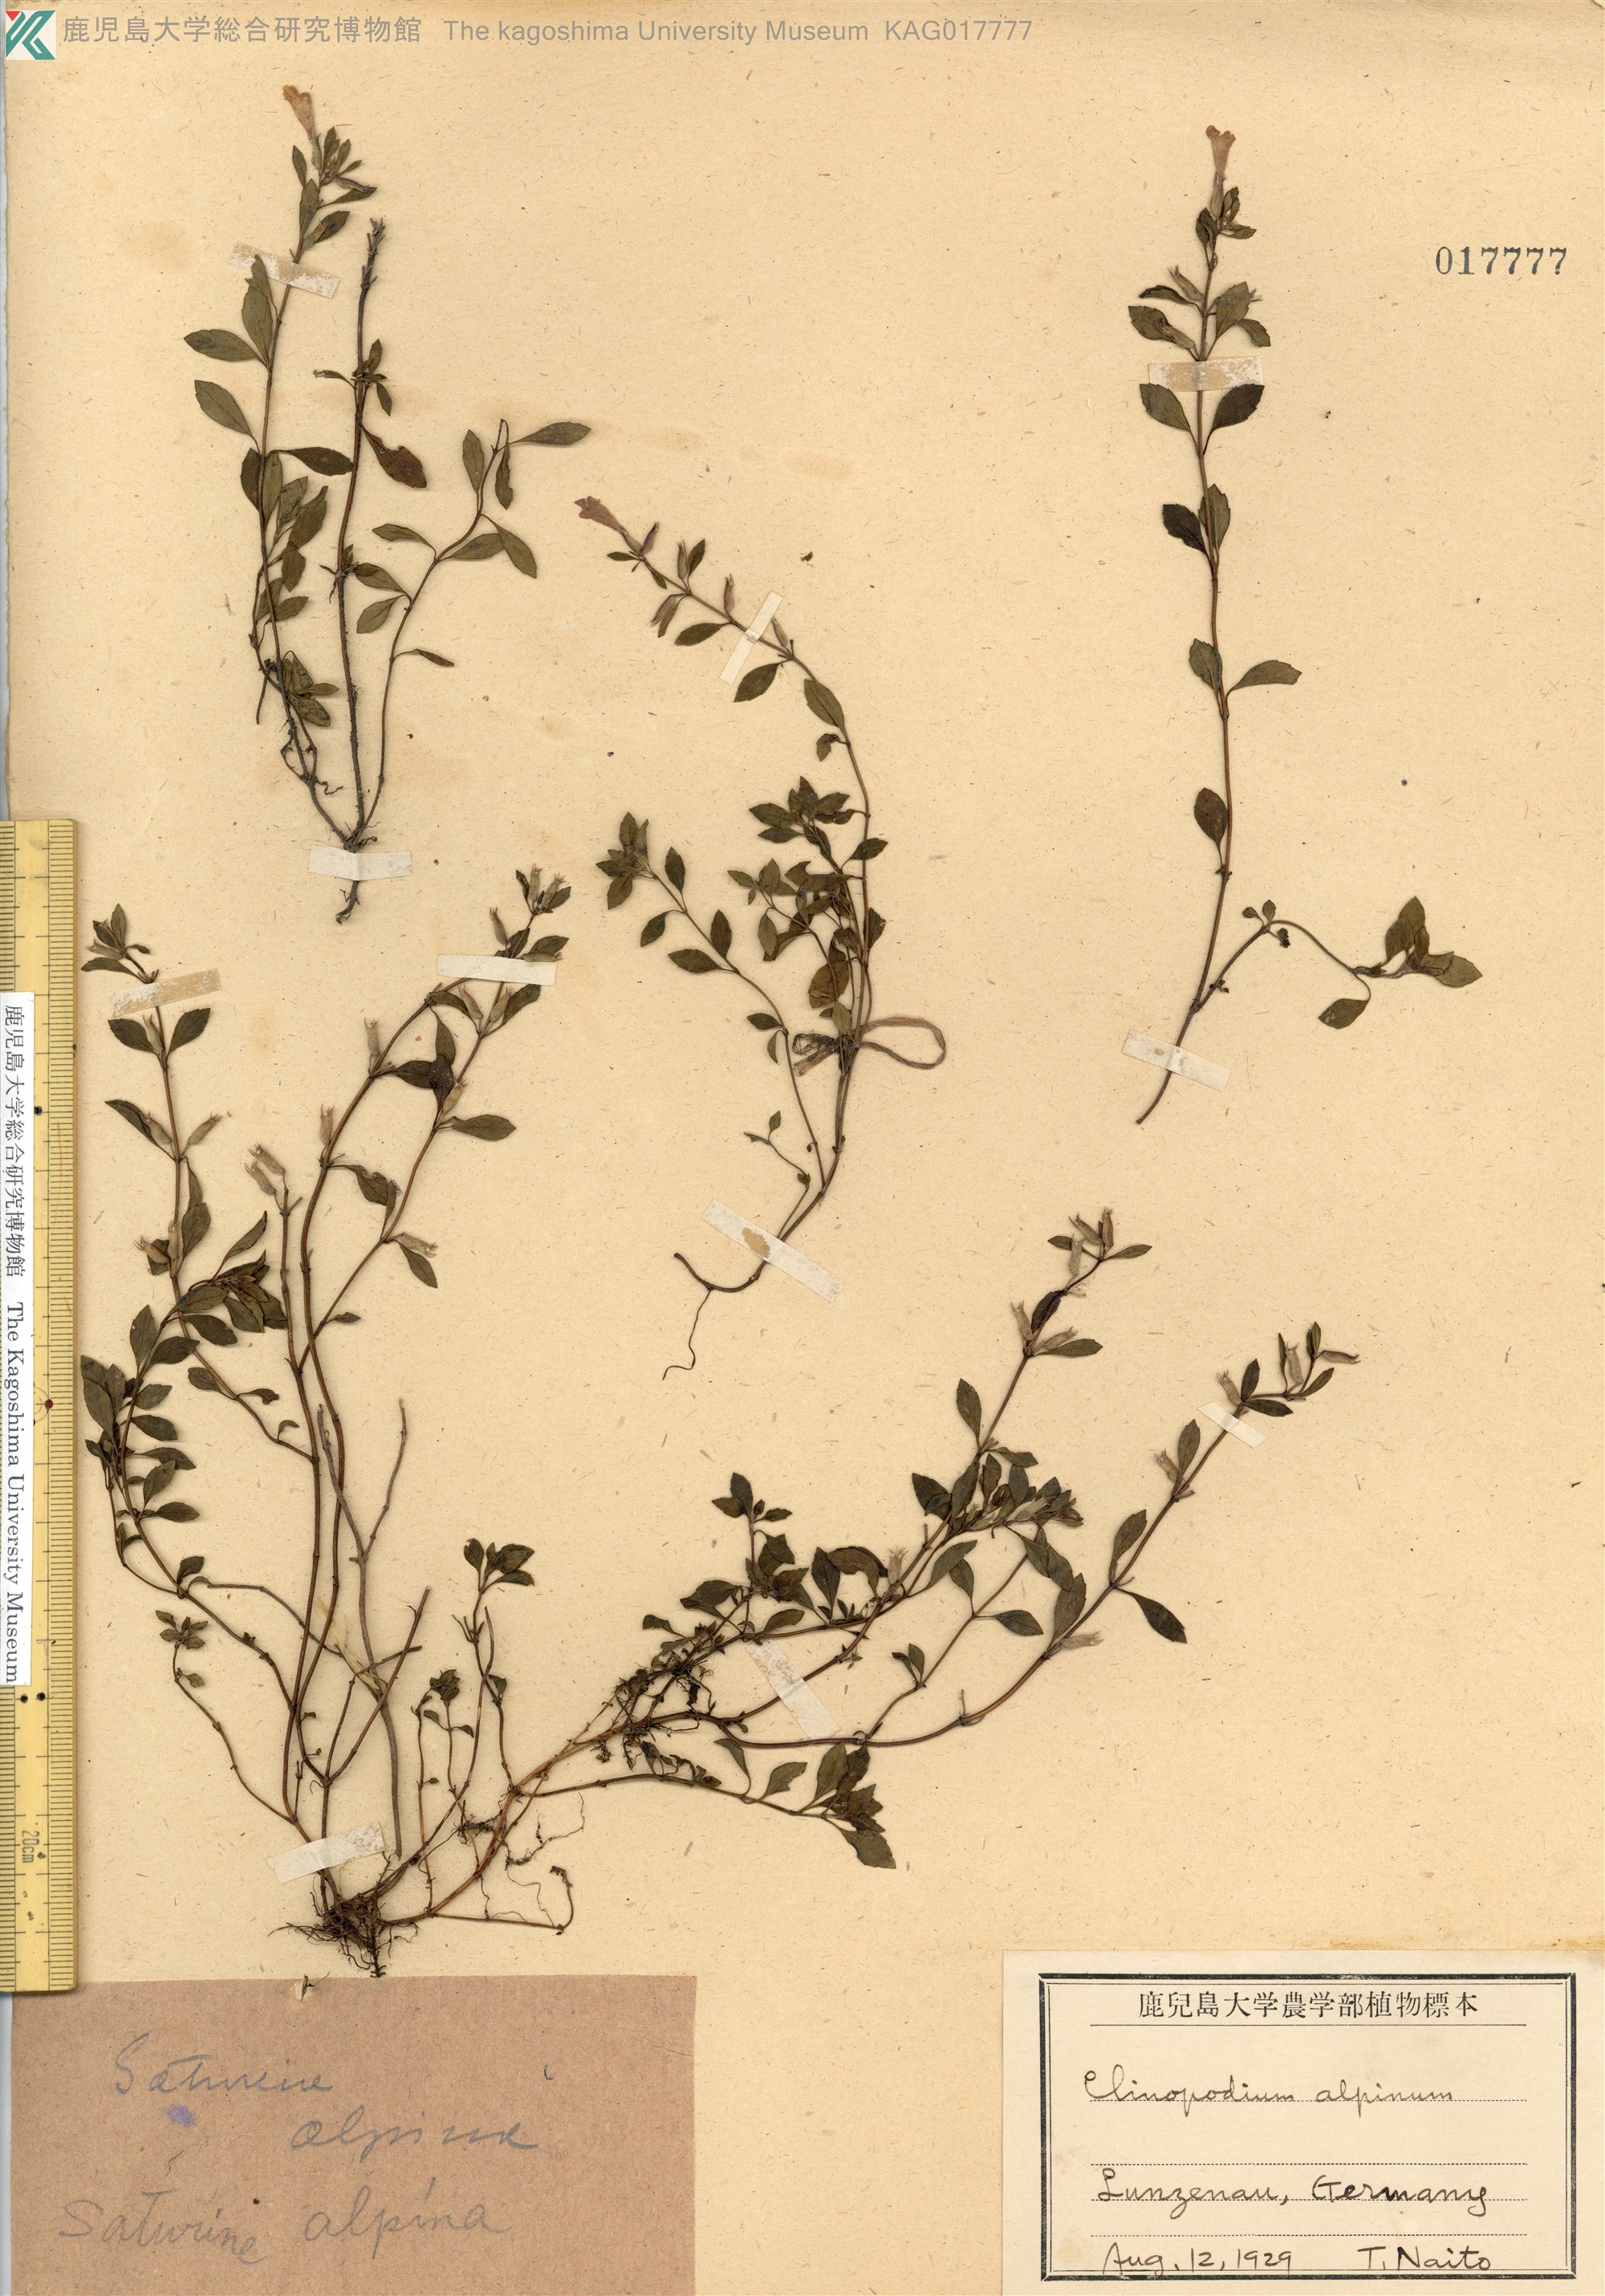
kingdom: Plantae
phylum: Tracheophyta
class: Magnoliopsida
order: Lamiales
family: Lamiaceae
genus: Clinopodium
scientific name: Clinopodium alpinum
